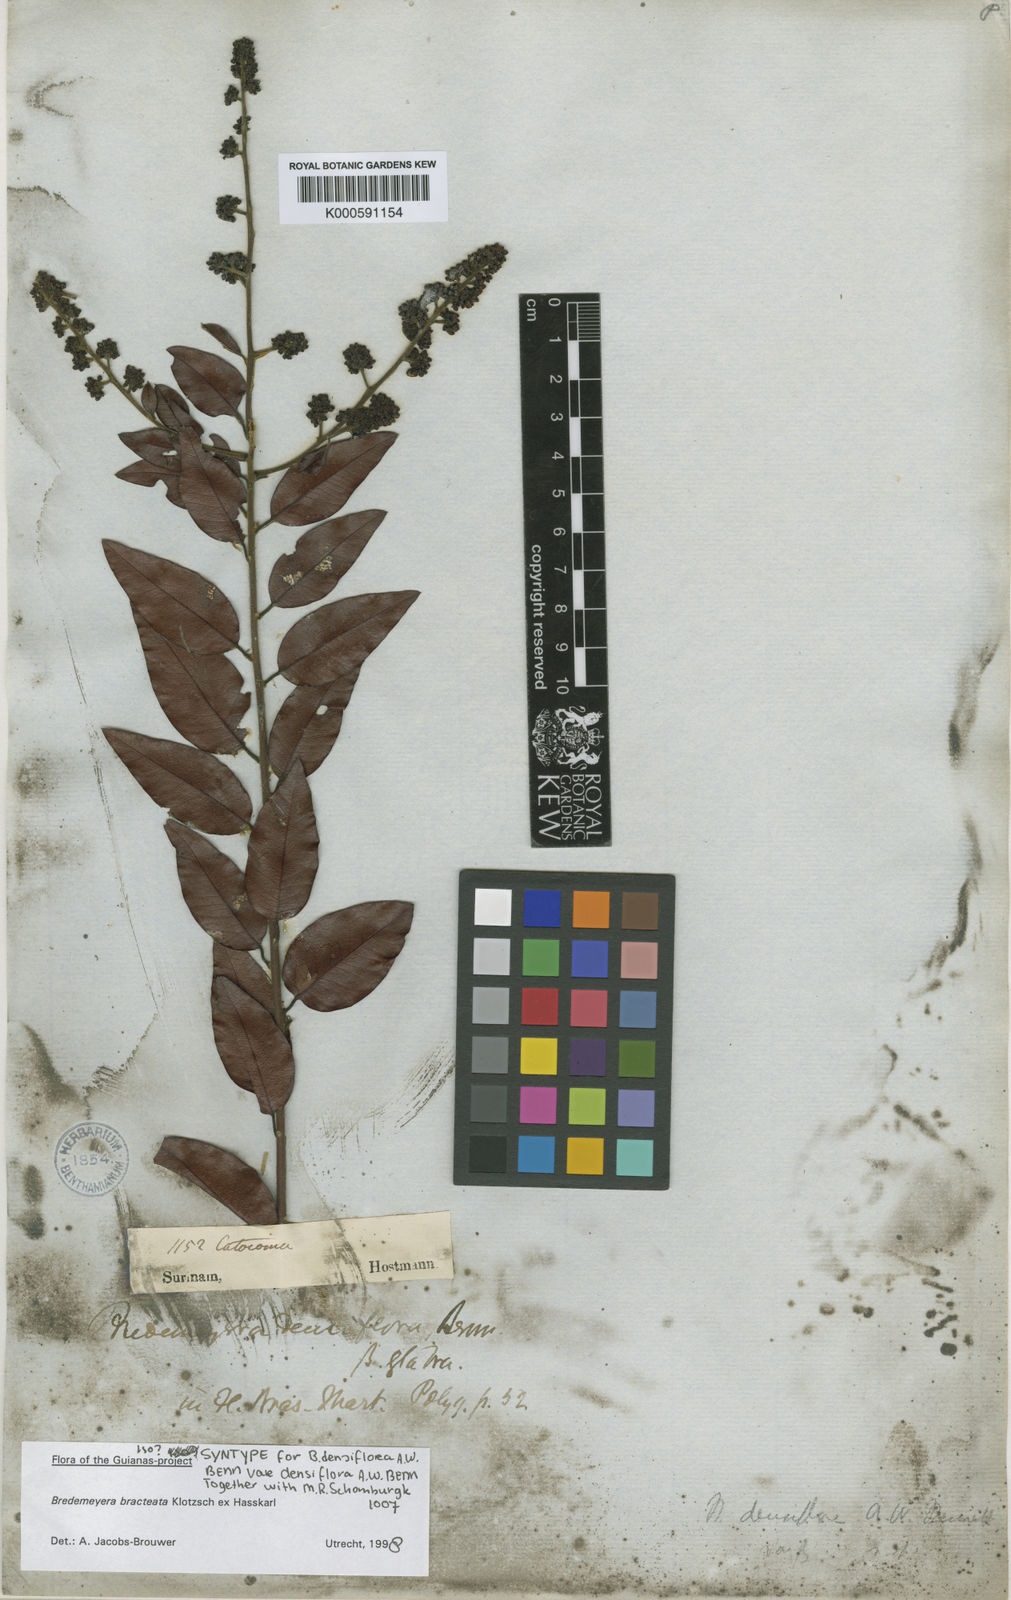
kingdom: Plantae
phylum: Tracheophyta
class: Magnoliopsida
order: Fabales
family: Polygalaceae
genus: Bredemeyera
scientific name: Bredemeyera bracteata
